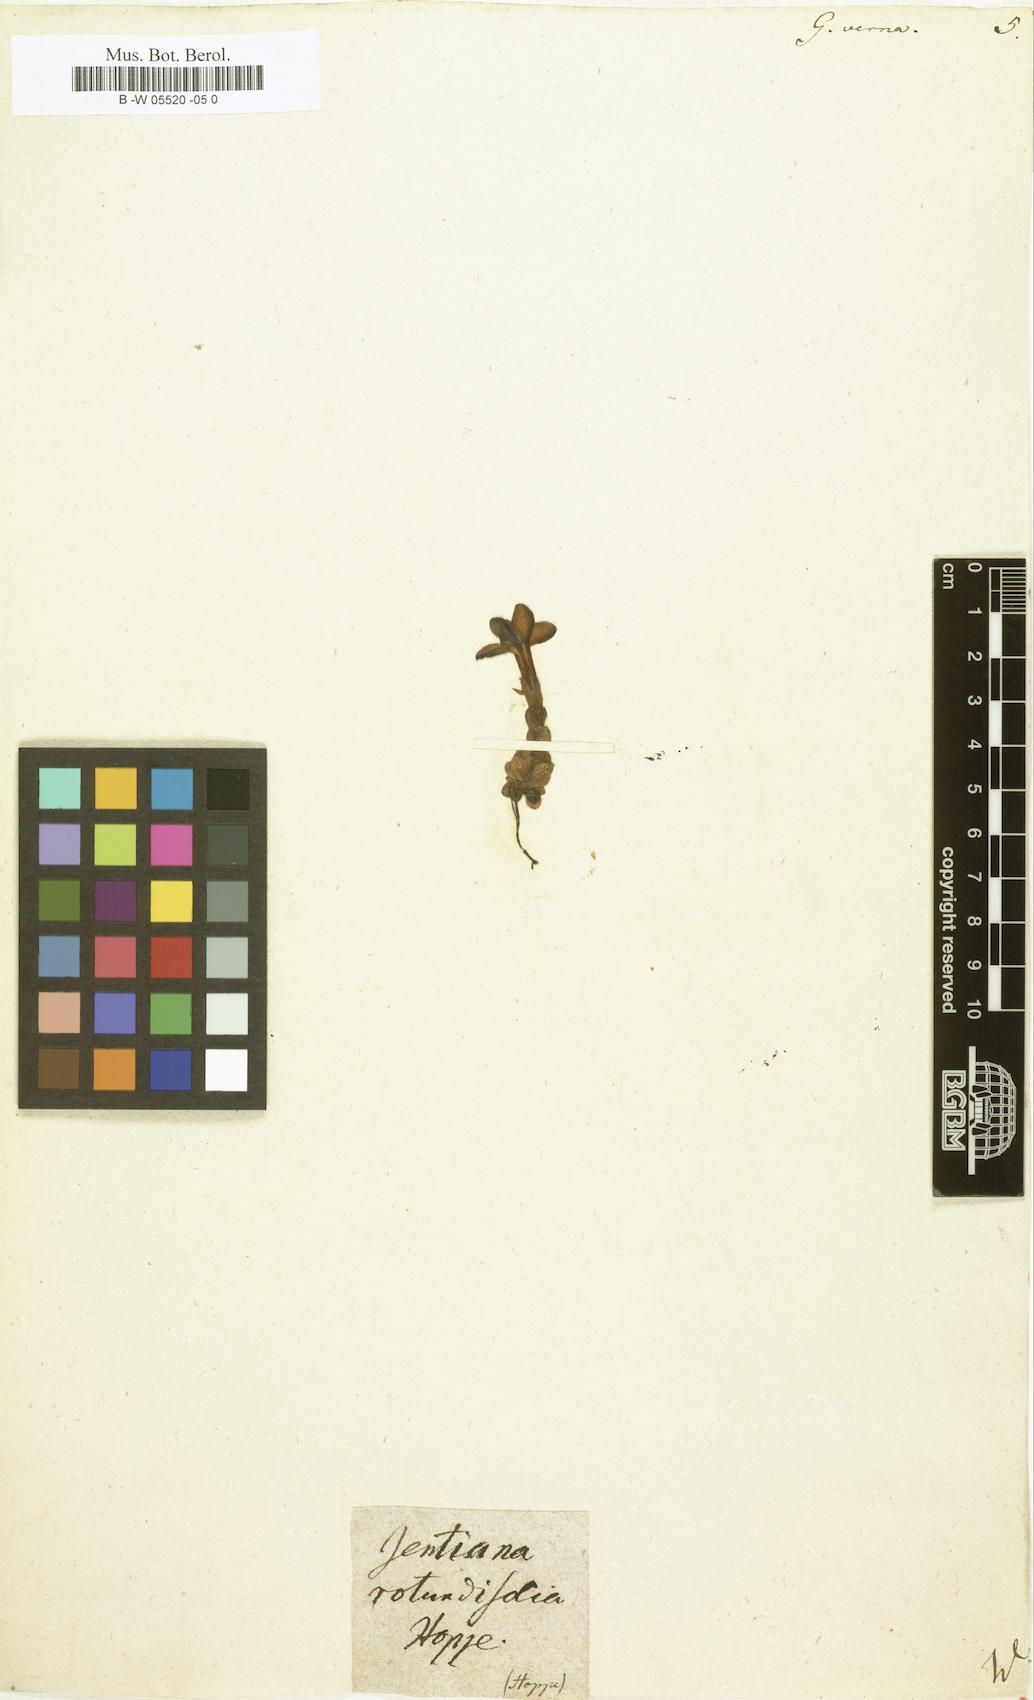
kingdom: Plantae
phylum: Tracheophyta
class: Magnoliopsida
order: Gentianales
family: Gentianaceae
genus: Gentiana
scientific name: Gentiana verna
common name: Spring gentian
